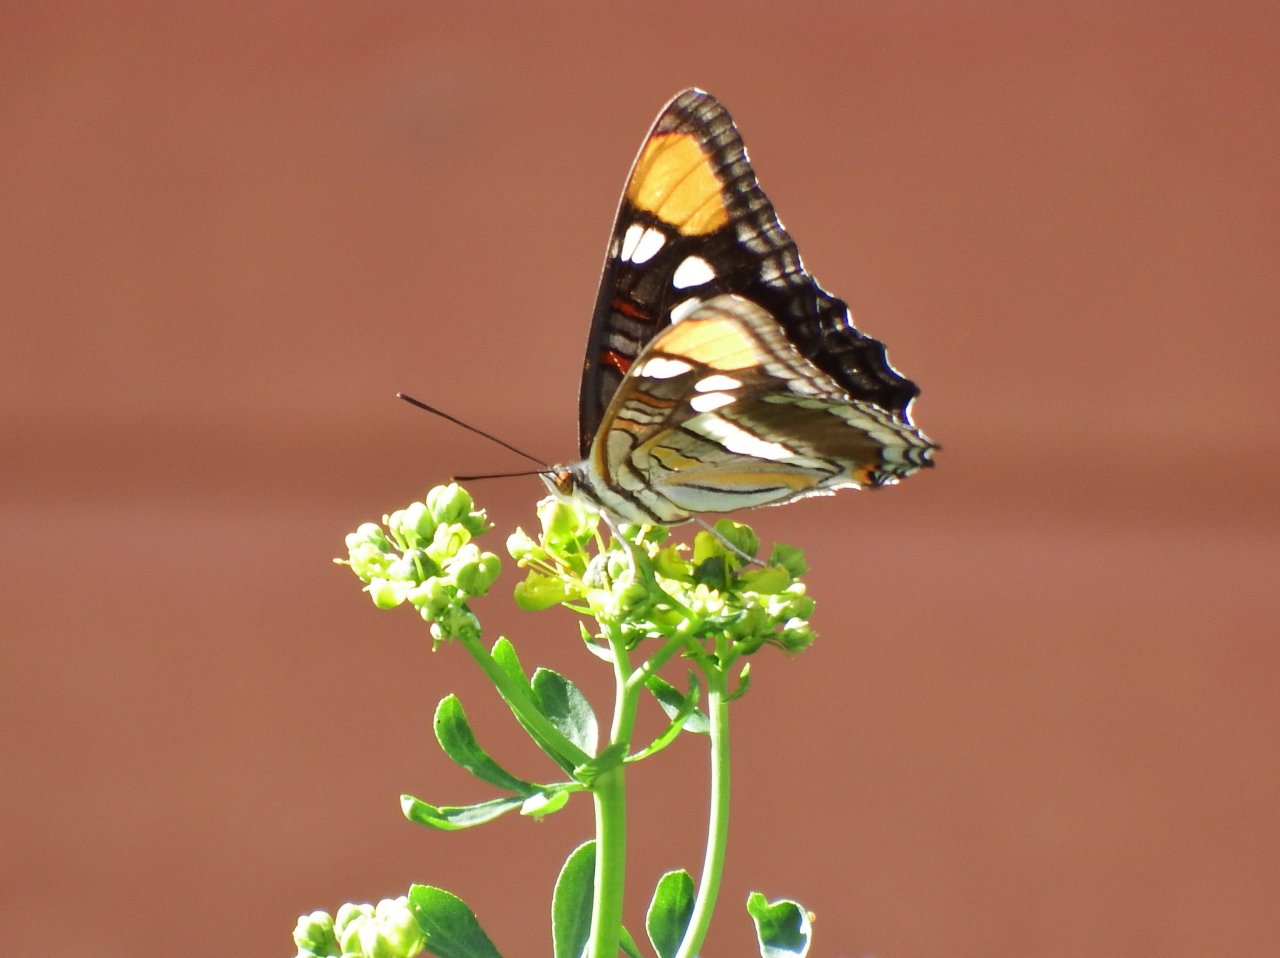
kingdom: Animalia
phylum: Arthropoda
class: Insecta
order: Lepidoptera
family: Nymphalidae
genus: Limenitis
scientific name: Limenitis bredowii
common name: Arizona Sister
